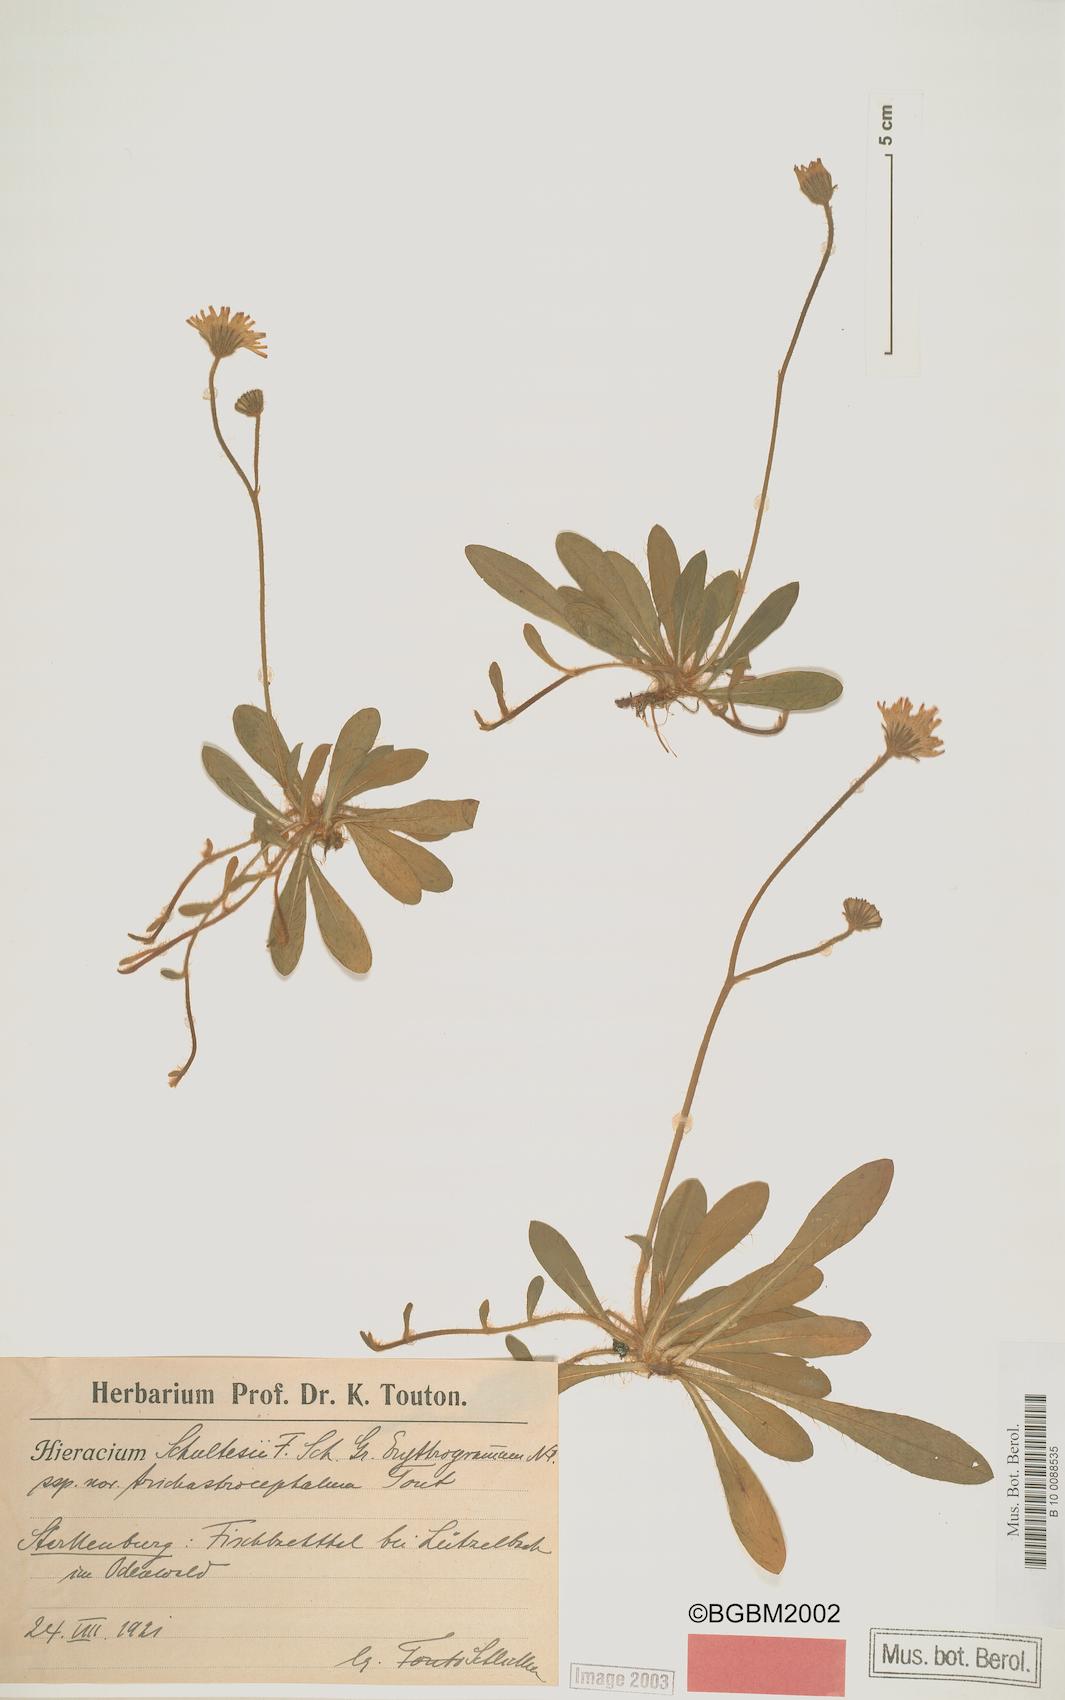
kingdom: Plantae
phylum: Tracheophyta
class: Magnoliopsida
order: Asterales
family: Asteraceae
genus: Pilosella
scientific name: Pilosella schultesii
